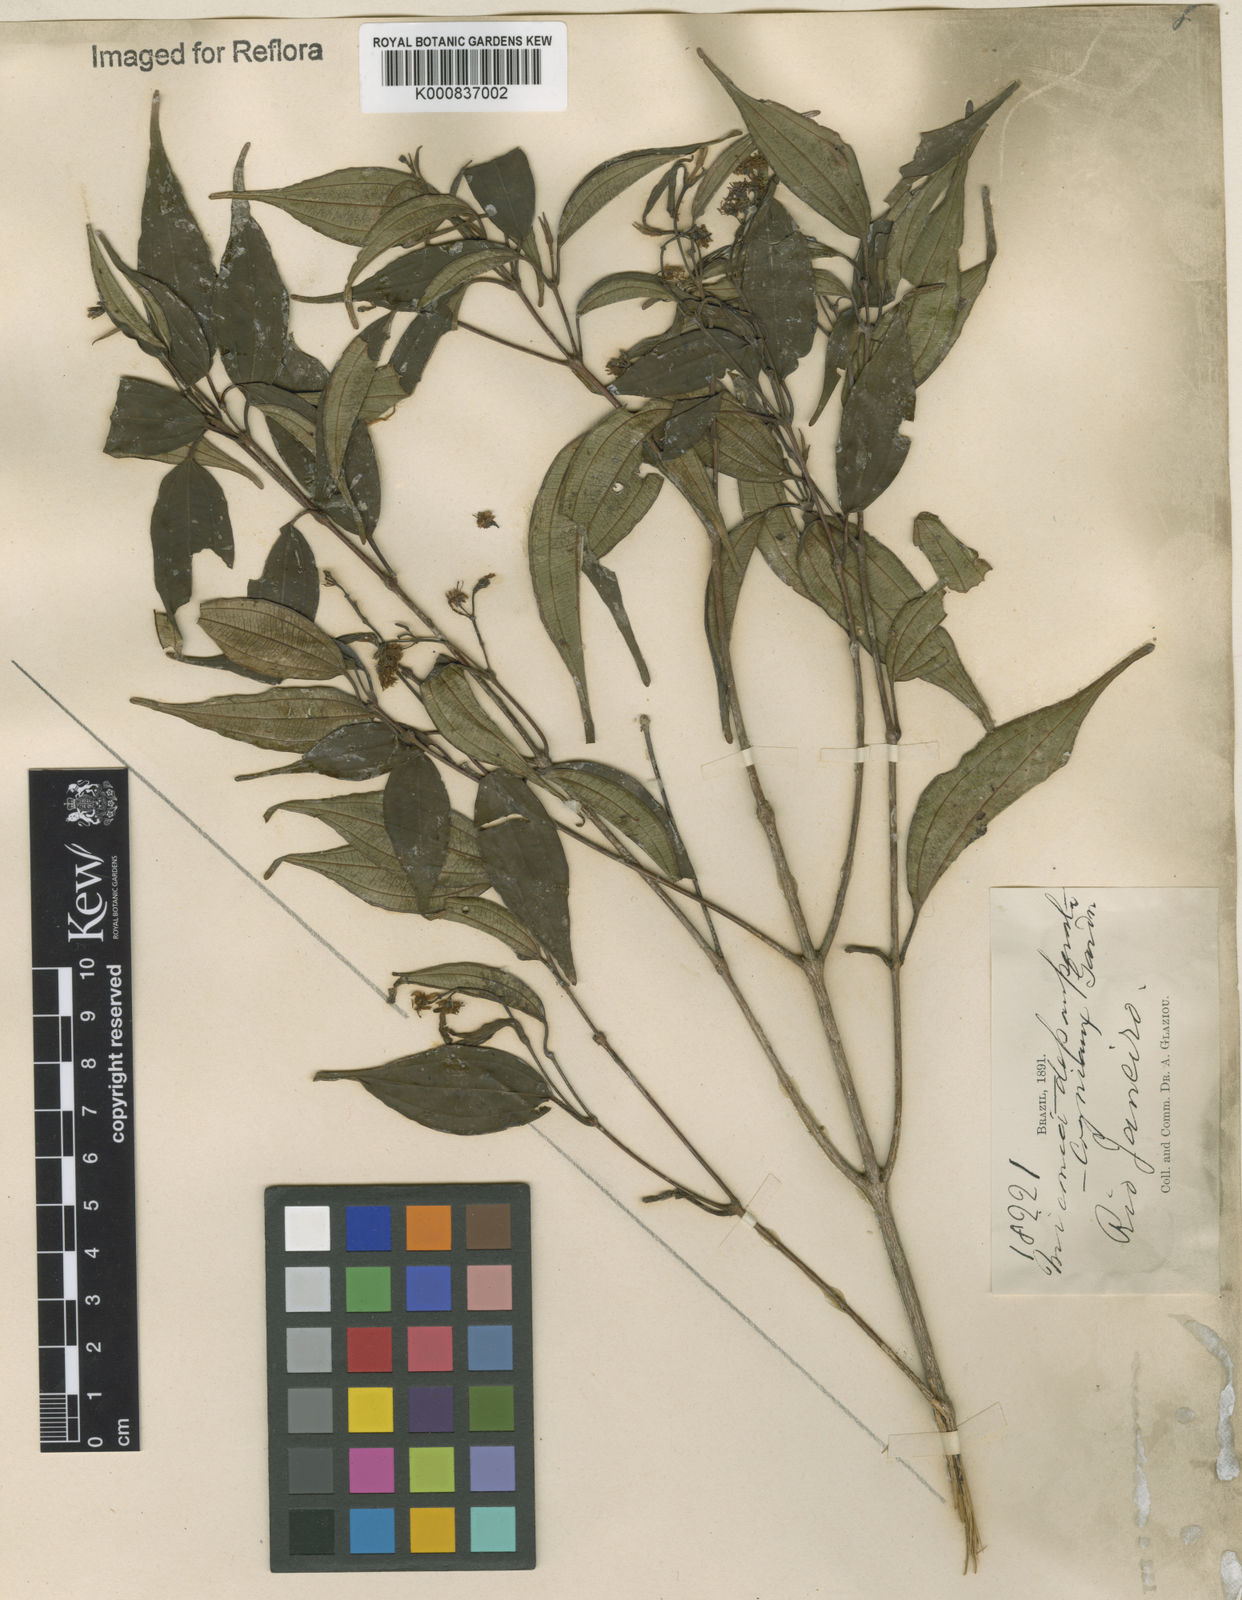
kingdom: Plantae
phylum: Tracheophyta
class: Magnoliopsida
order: Myrtales
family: Melastomataceae
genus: Miconia
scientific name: Miconia depauperata
